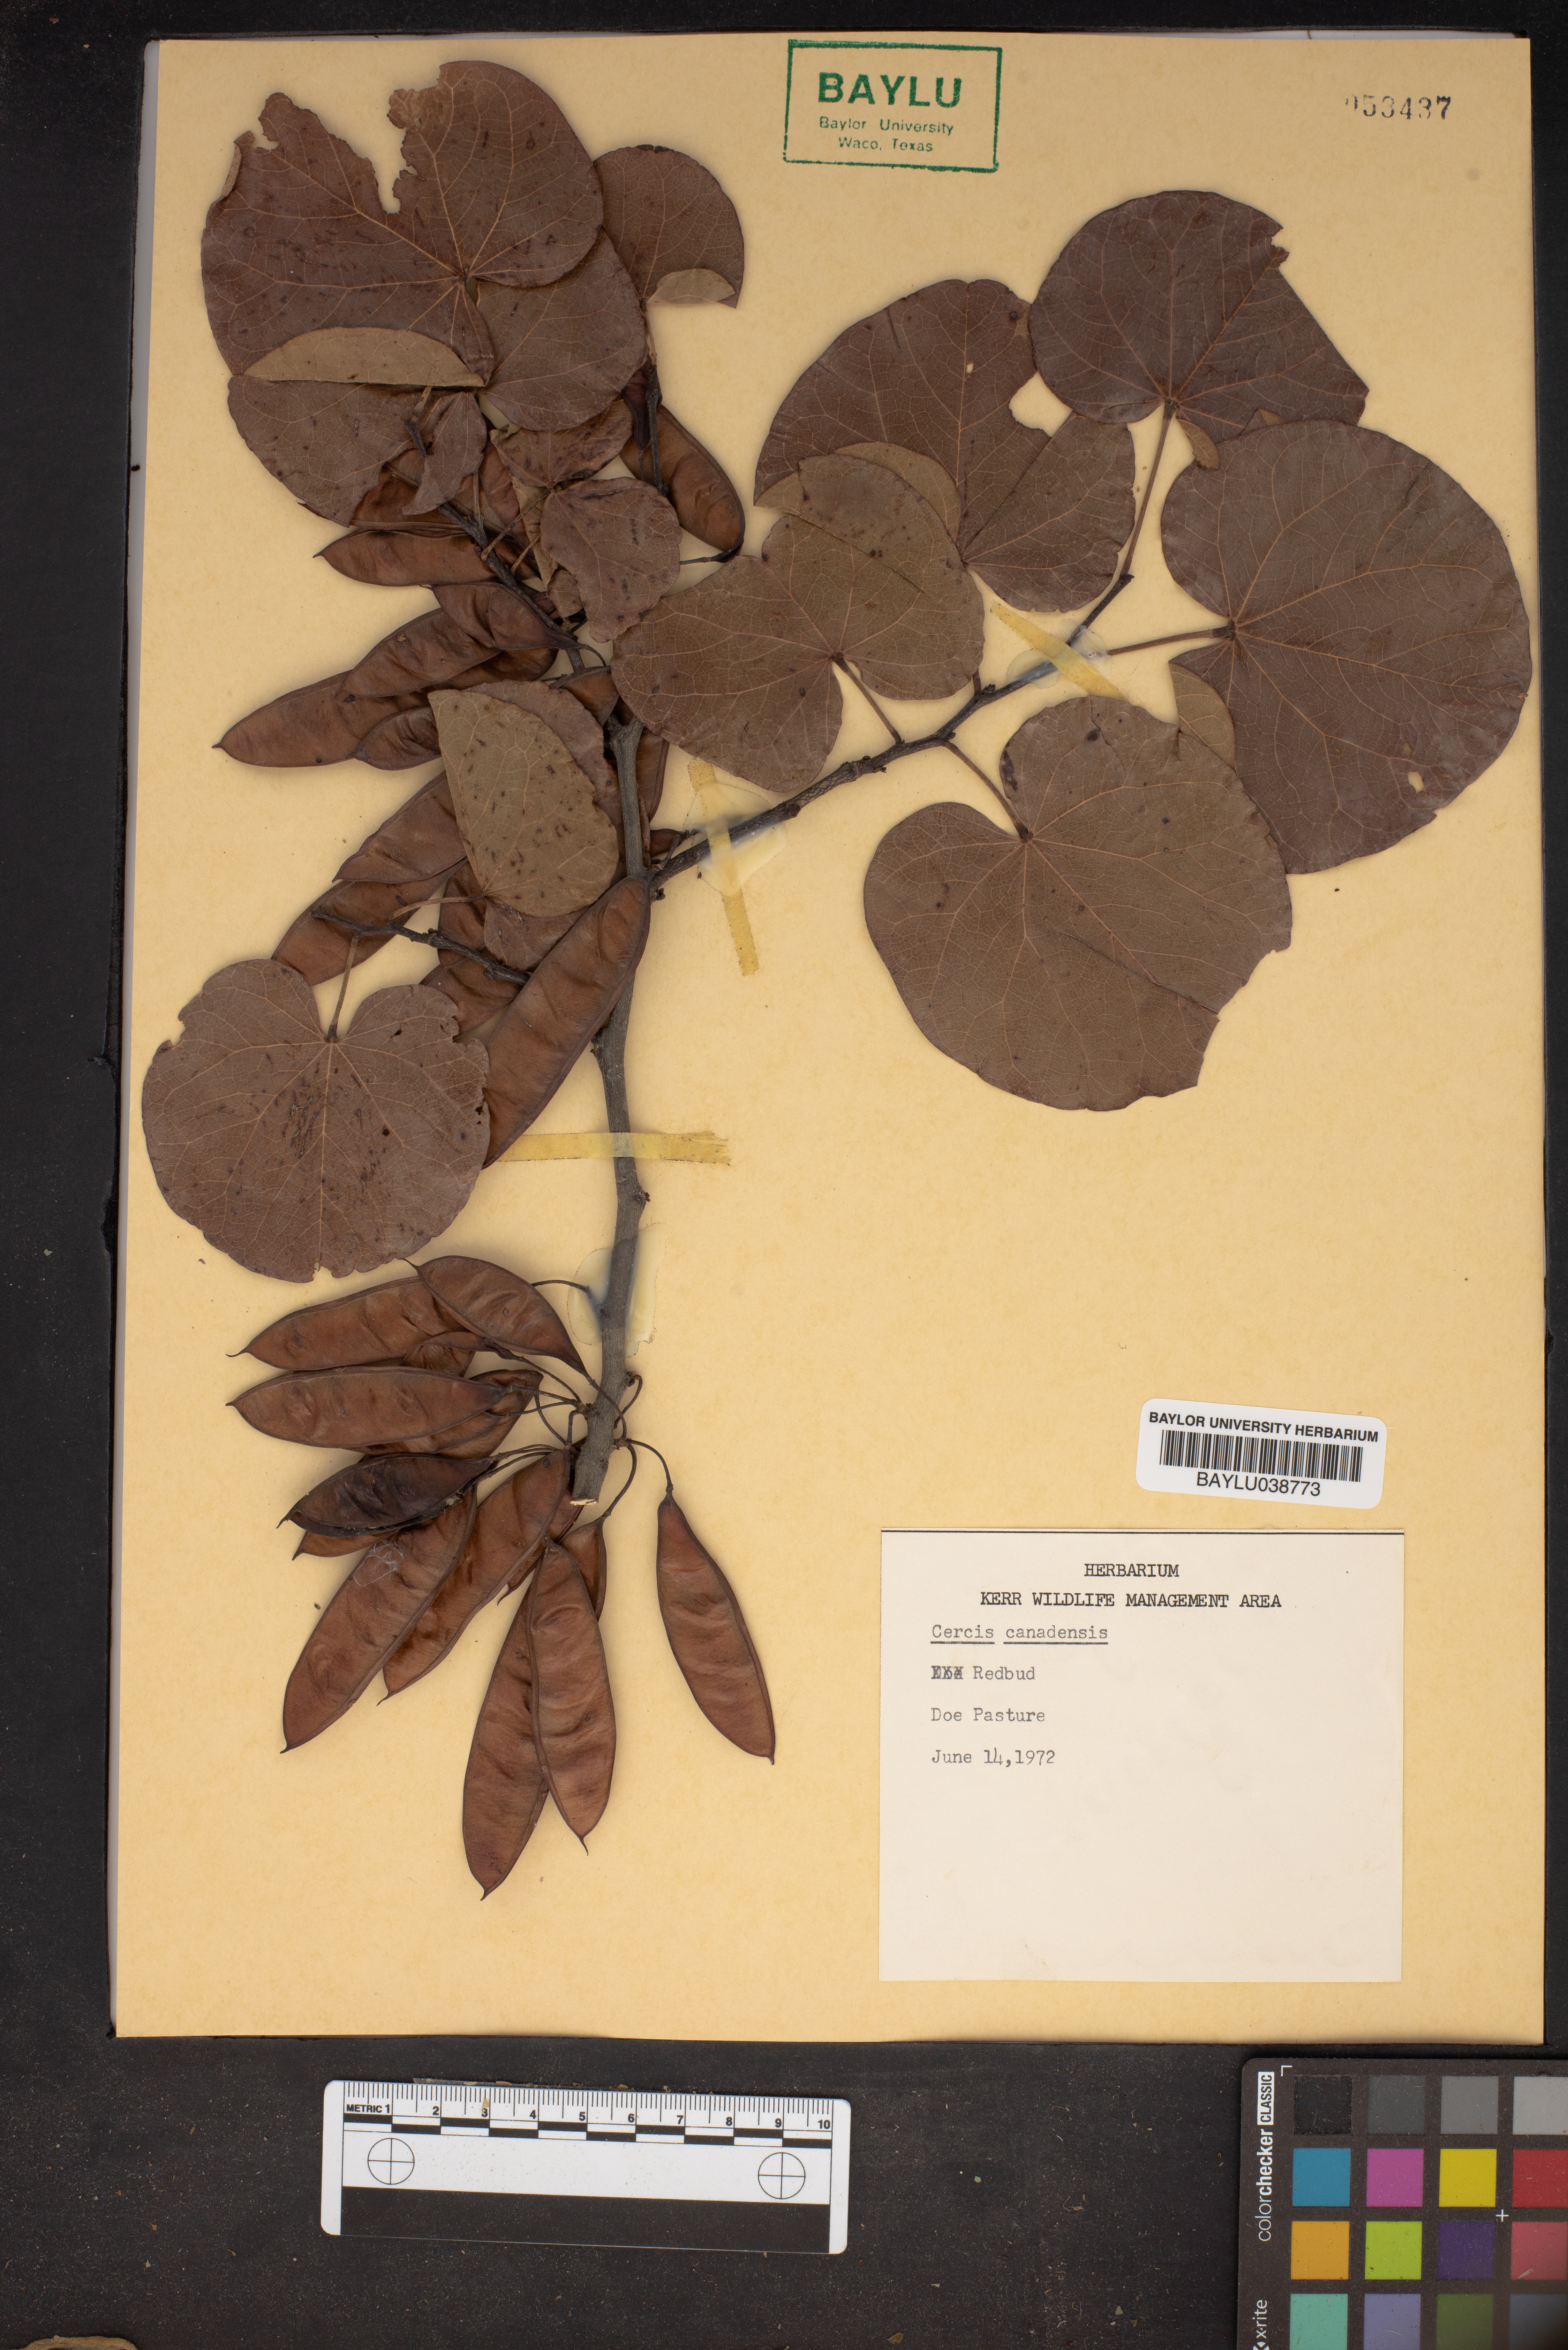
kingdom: Plantae
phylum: Tracheophyta
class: Magnoliopsida
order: Fabales
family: Fabaceae
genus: Cercis
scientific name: Cercis canadensis
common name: Eastern redbud
